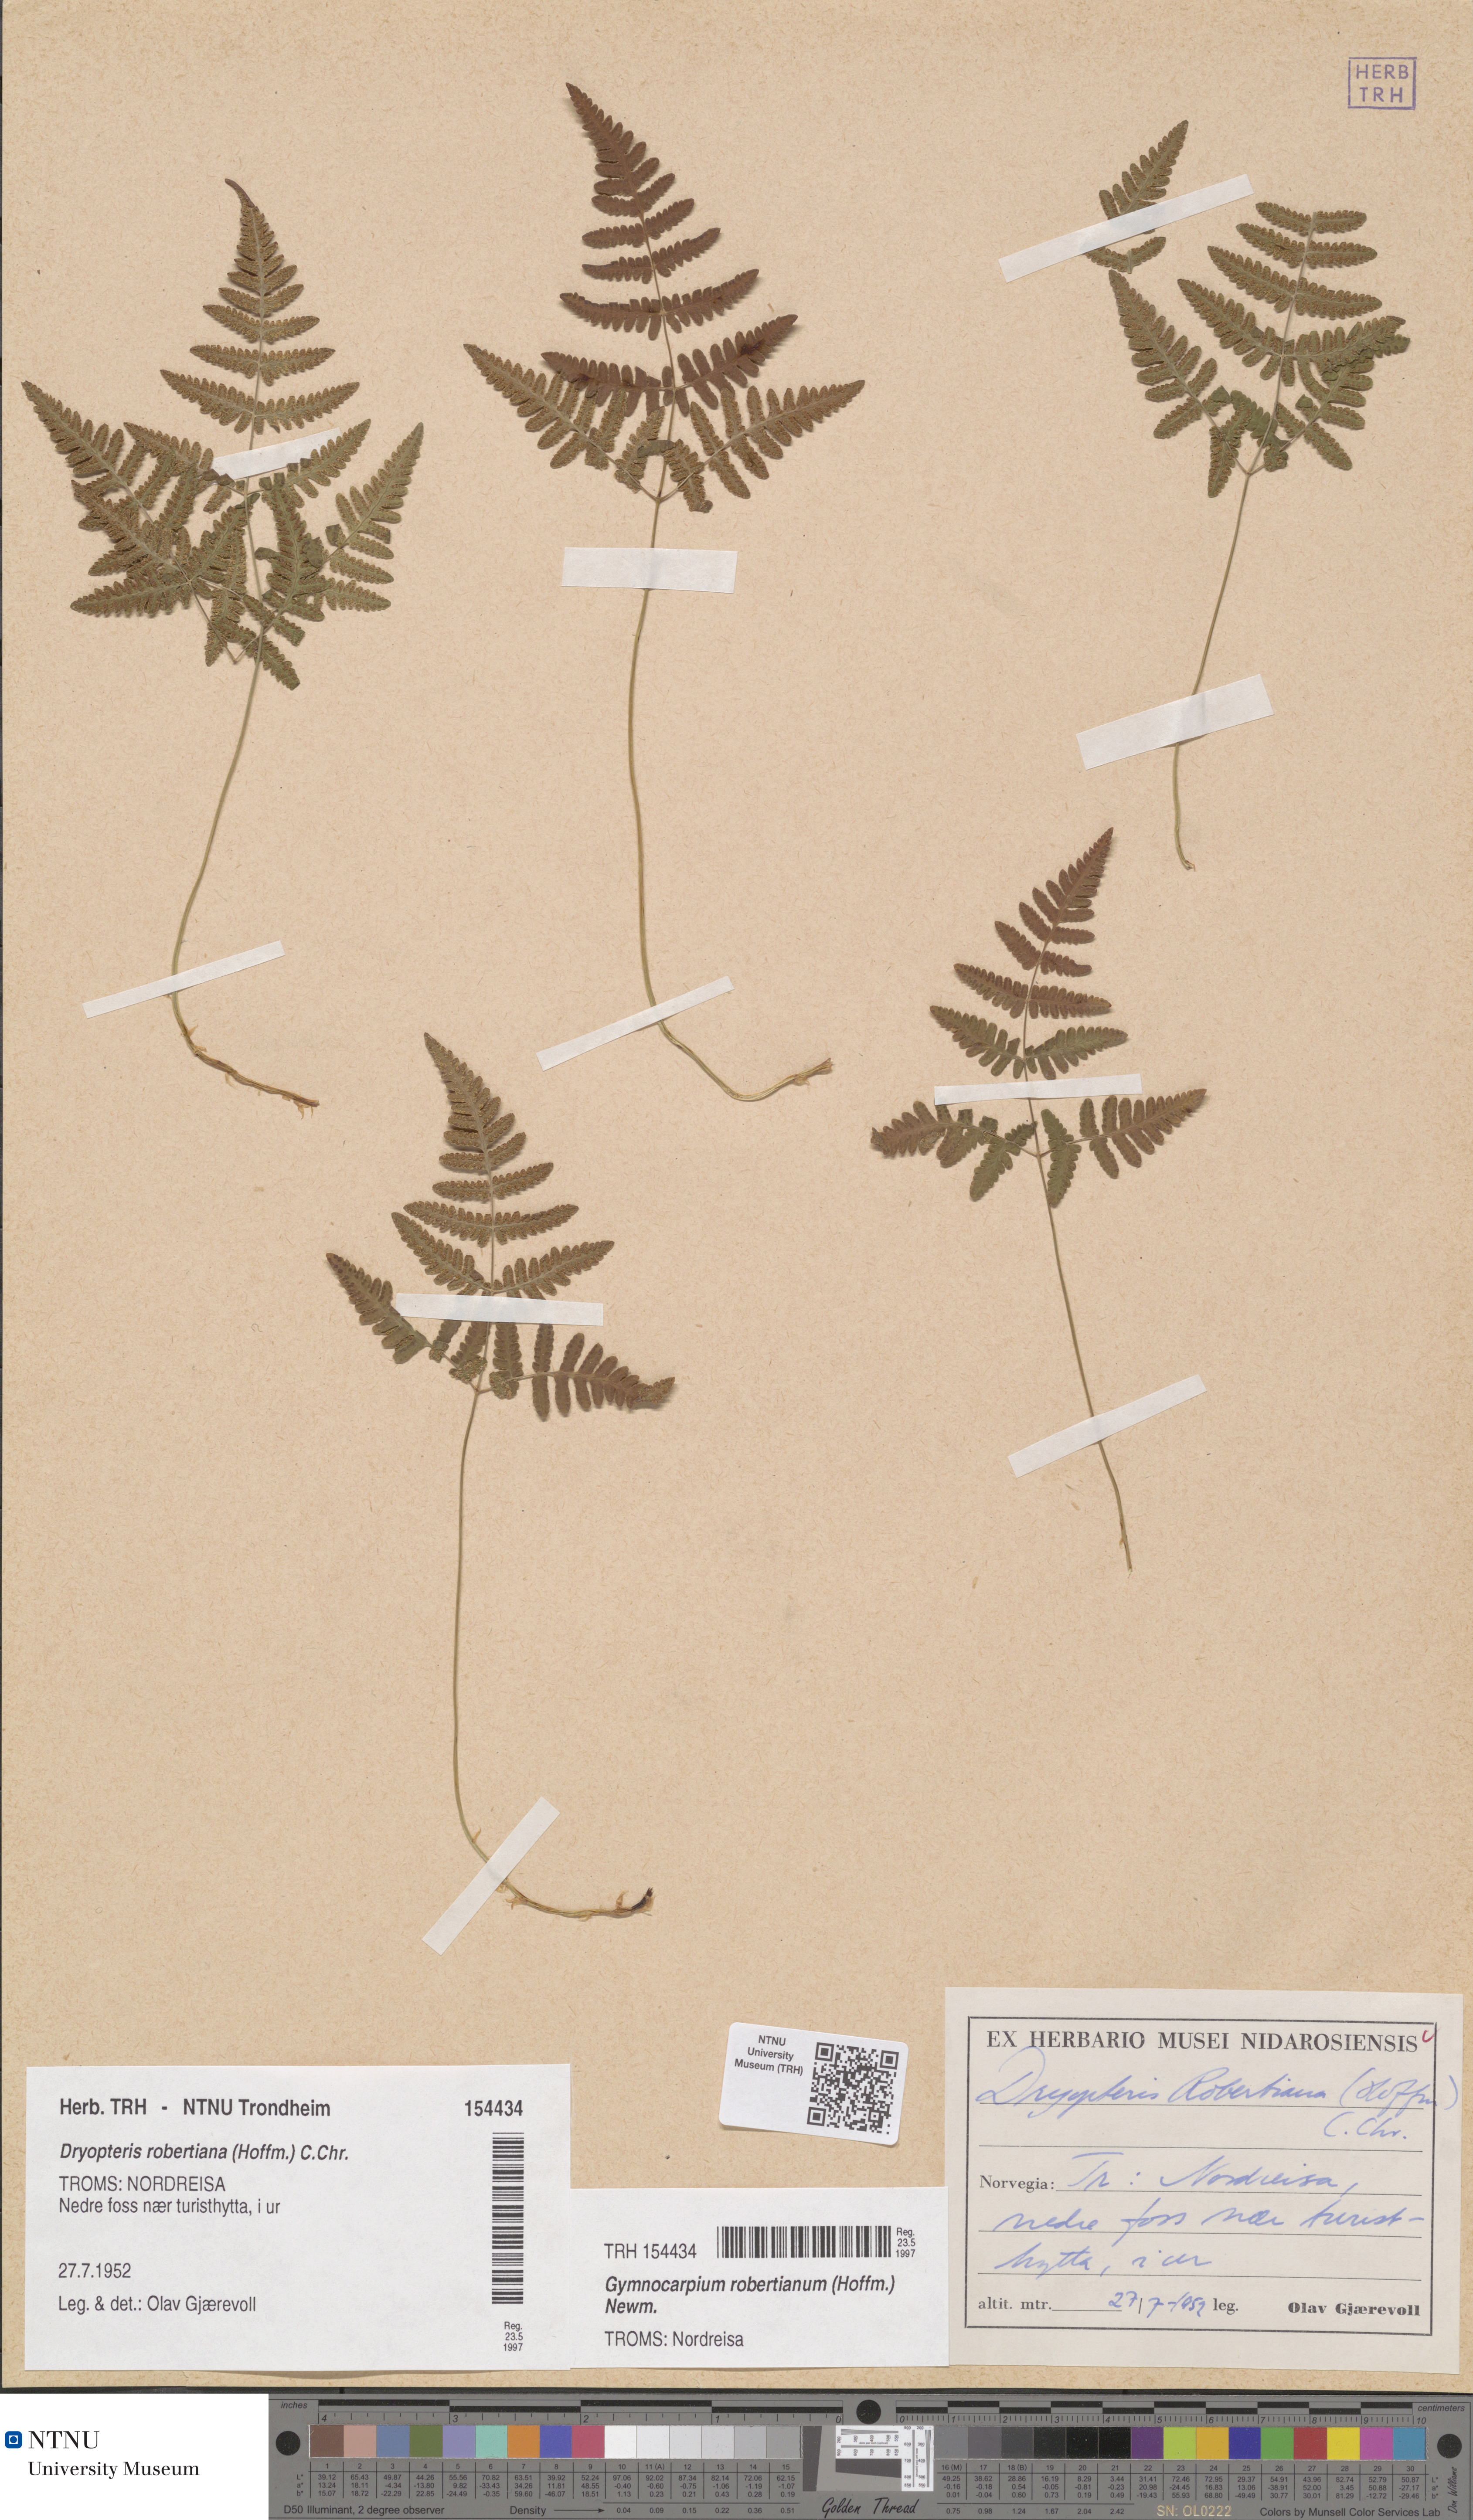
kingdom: Plantae
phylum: Tracheophyta
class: Polypodiopsida
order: Polypodiales
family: Cystopteridaceae
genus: Gymnocarpium
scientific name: Gymnocarpium robertianum
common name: Limestone fern
